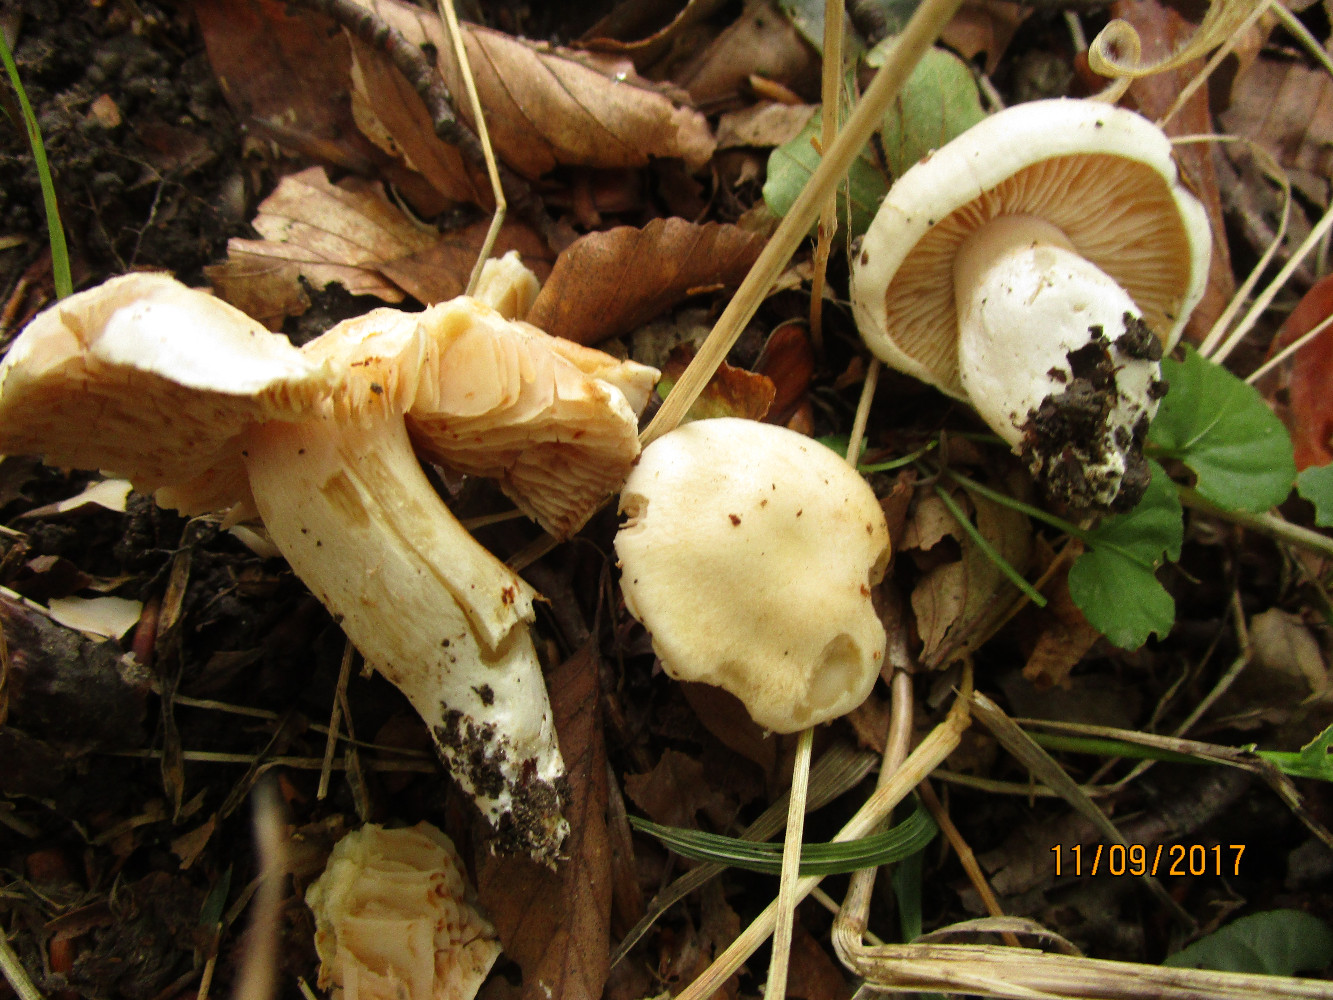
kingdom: Fungi
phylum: Basidiomycota
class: Agaricomycetes
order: Agaricales
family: Entolomataceae
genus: Entoloma
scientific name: Entoloma sinuatum
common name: giftig rødblad
